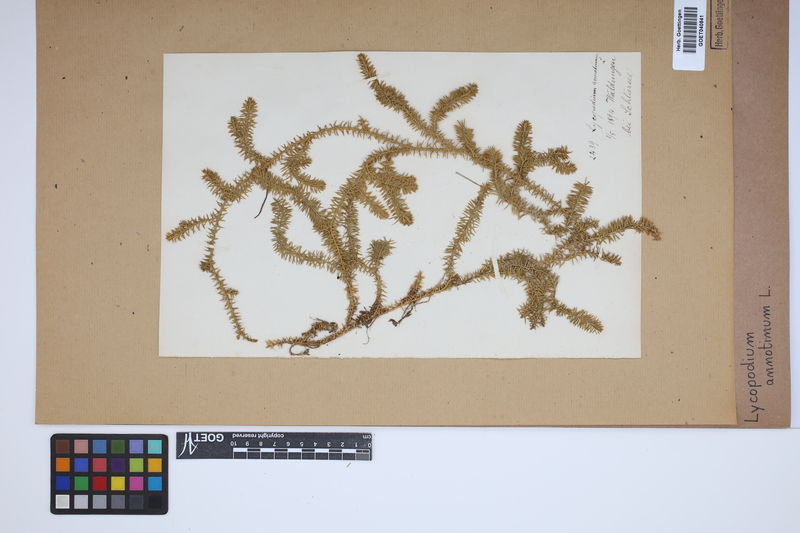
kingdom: Plantae
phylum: Tracheophyta
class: Lycopodiopsida
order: Lycopodiales
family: Lycopodiaceae
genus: Spinulum
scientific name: Spinulum annotinum
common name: Interrupted club-moss
